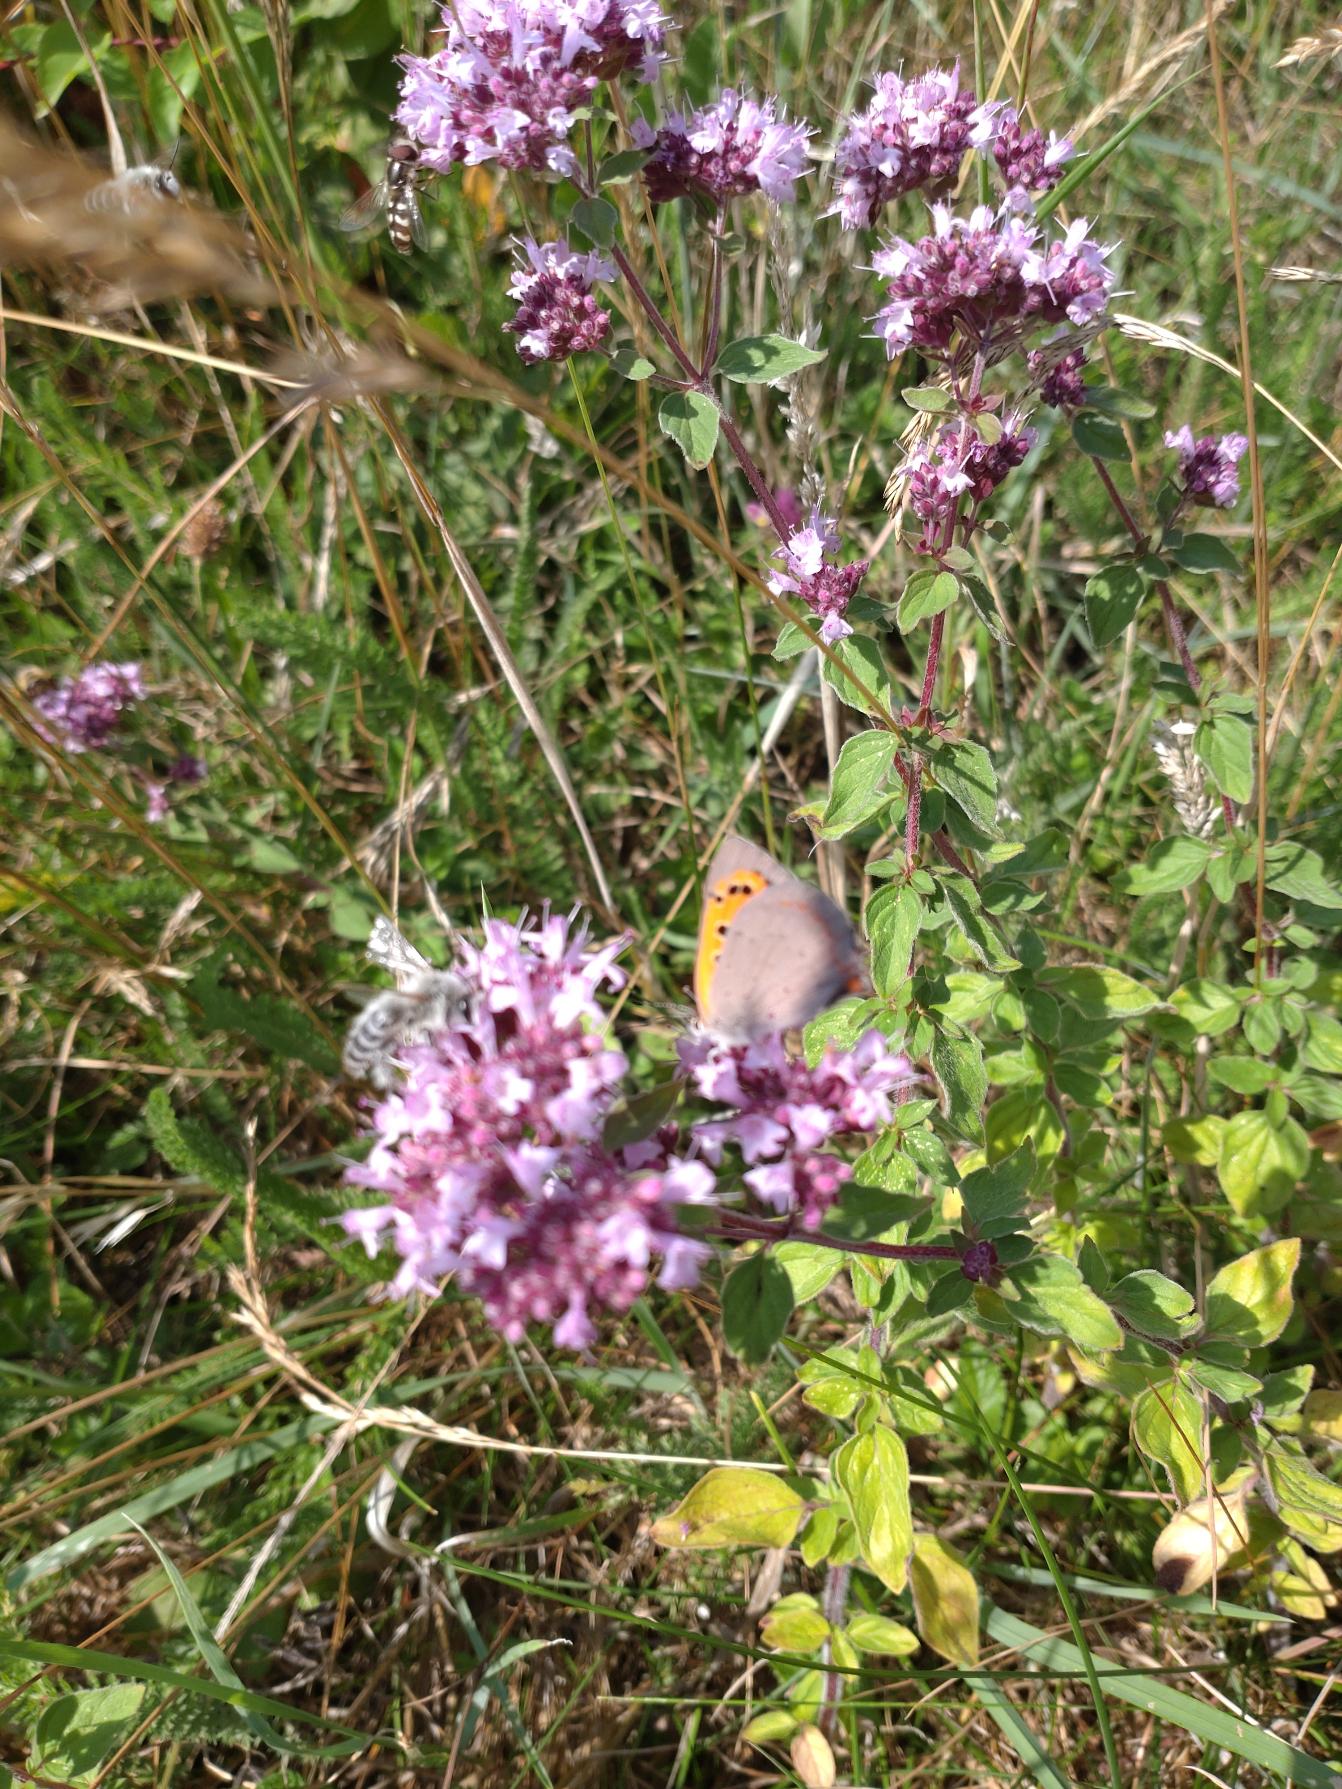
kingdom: Animalia
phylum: Arthropoda
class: Insecta
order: Lepidoptera
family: Lycaenidae
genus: Lycaena
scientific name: Lycaena phlaeas
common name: Lille ildfugl
